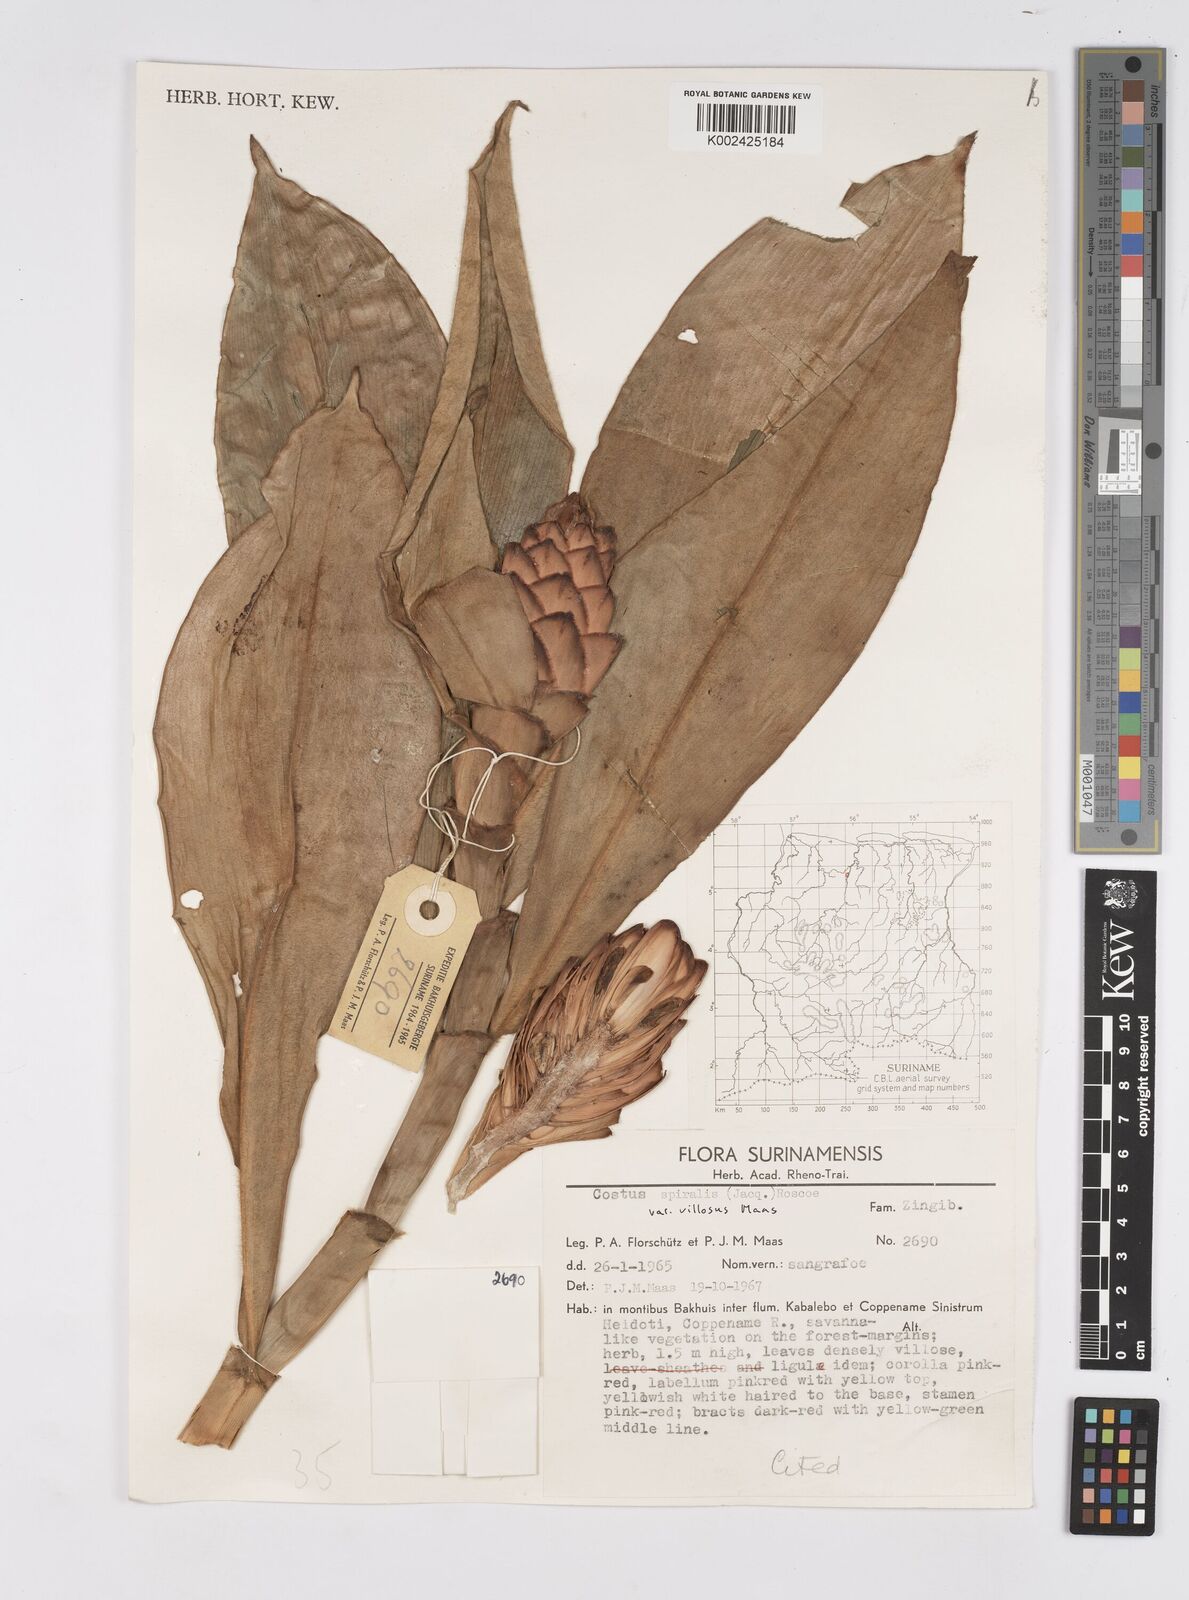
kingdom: Plantae
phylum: Tracheophyta
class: Liliopsida
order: Zingiberales
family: Costaceae
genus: Costus
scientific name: Costus spiralis
